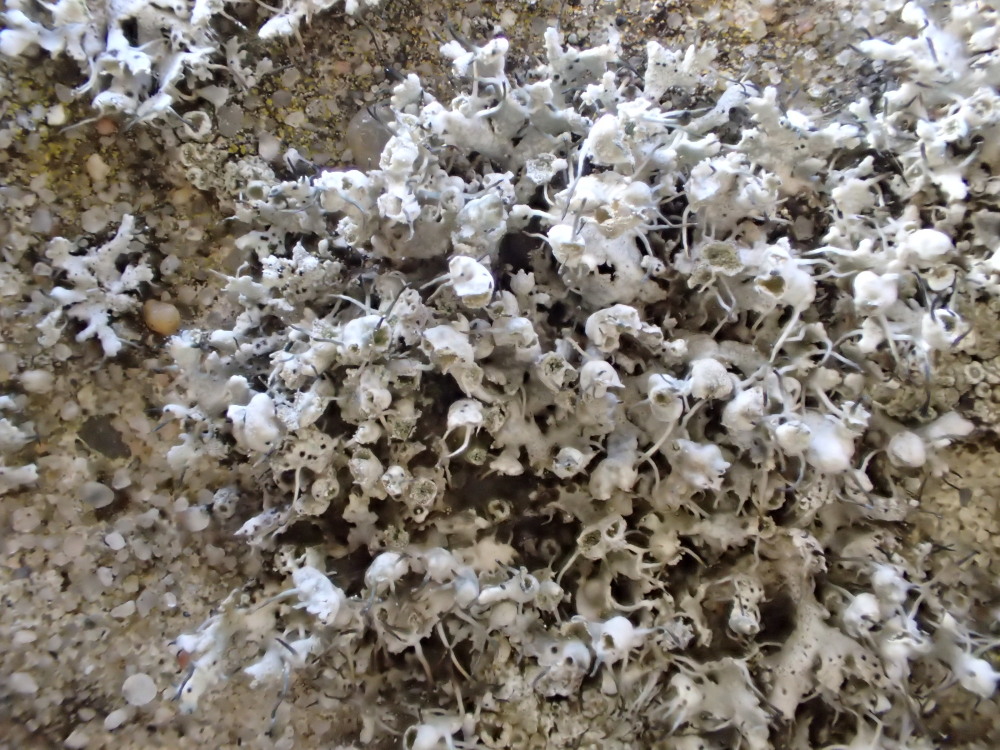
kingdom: Fungi
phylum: Ascomycota
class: Lecanoromycetes
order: Caliciales
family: Physciaceae
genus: Physcia
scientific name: Physcia adscendens
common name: hætte-rosetlav
